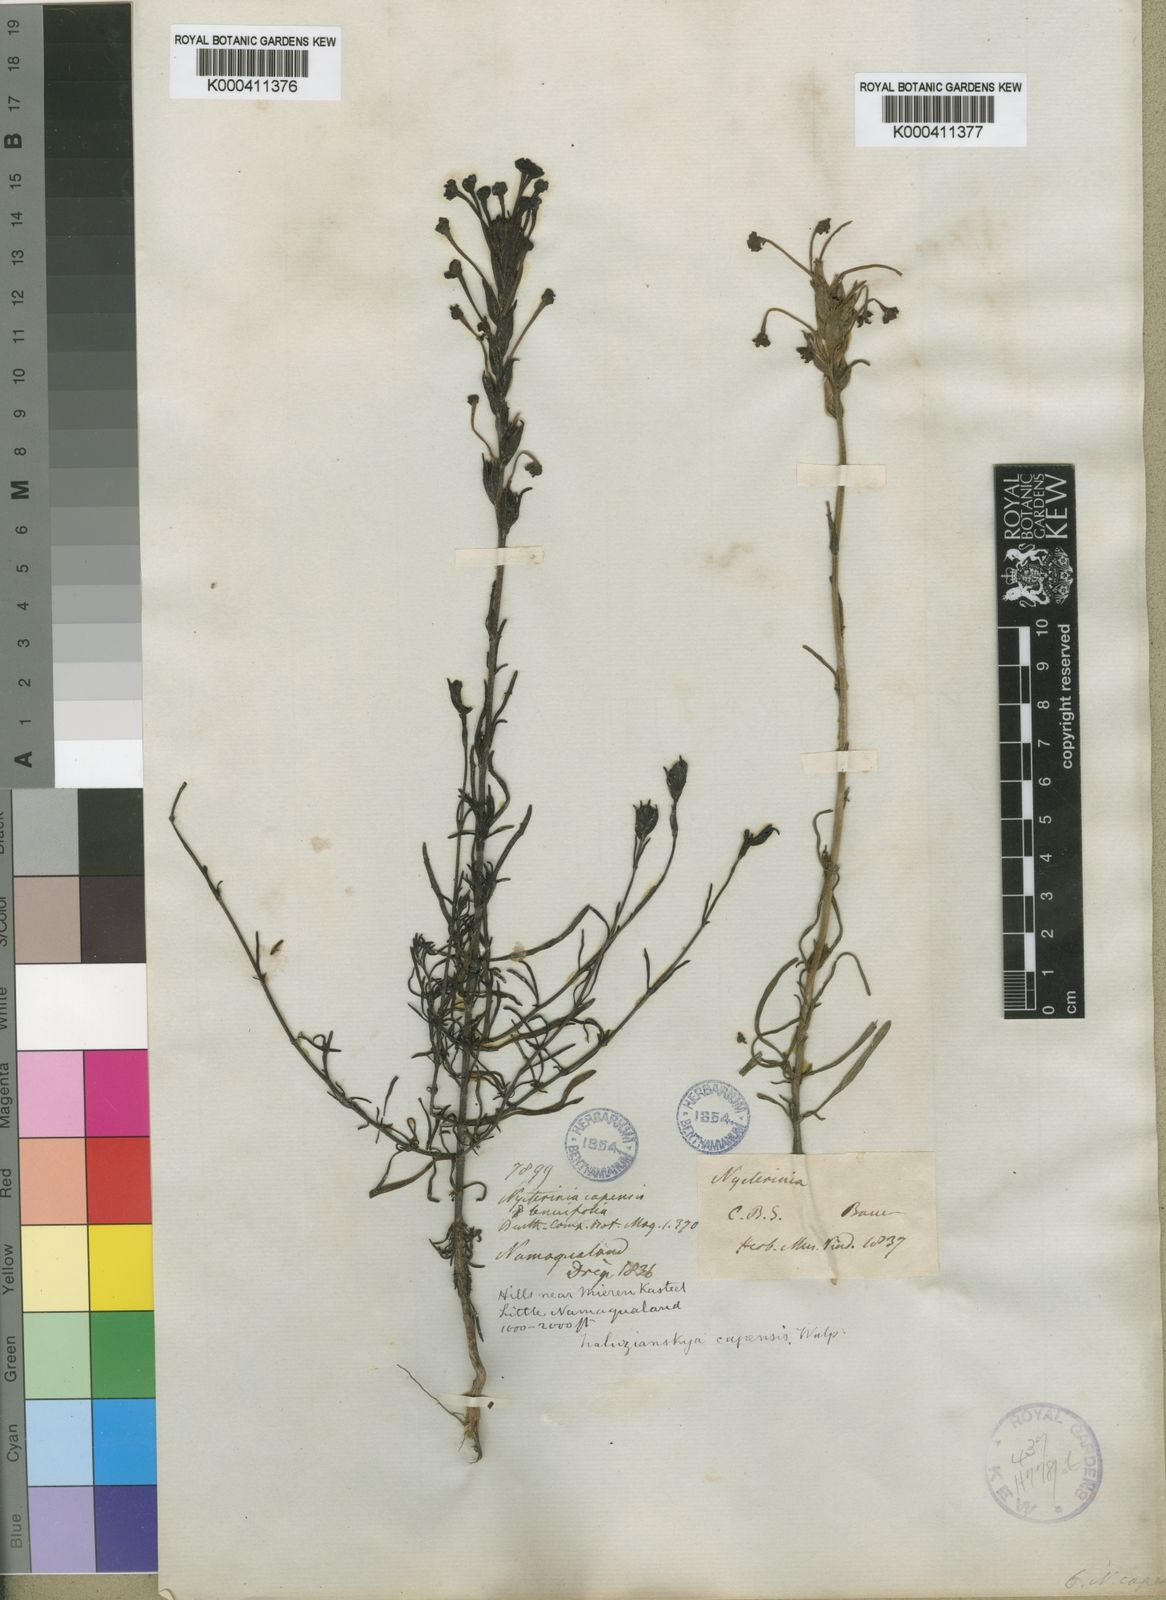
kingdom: Plantae
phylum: Tracheophyta
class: Magnoliopsida
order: Lamiales
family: Scrophulariaceae
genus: Zaluzianskya
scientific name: Zaluzianskya capensis
